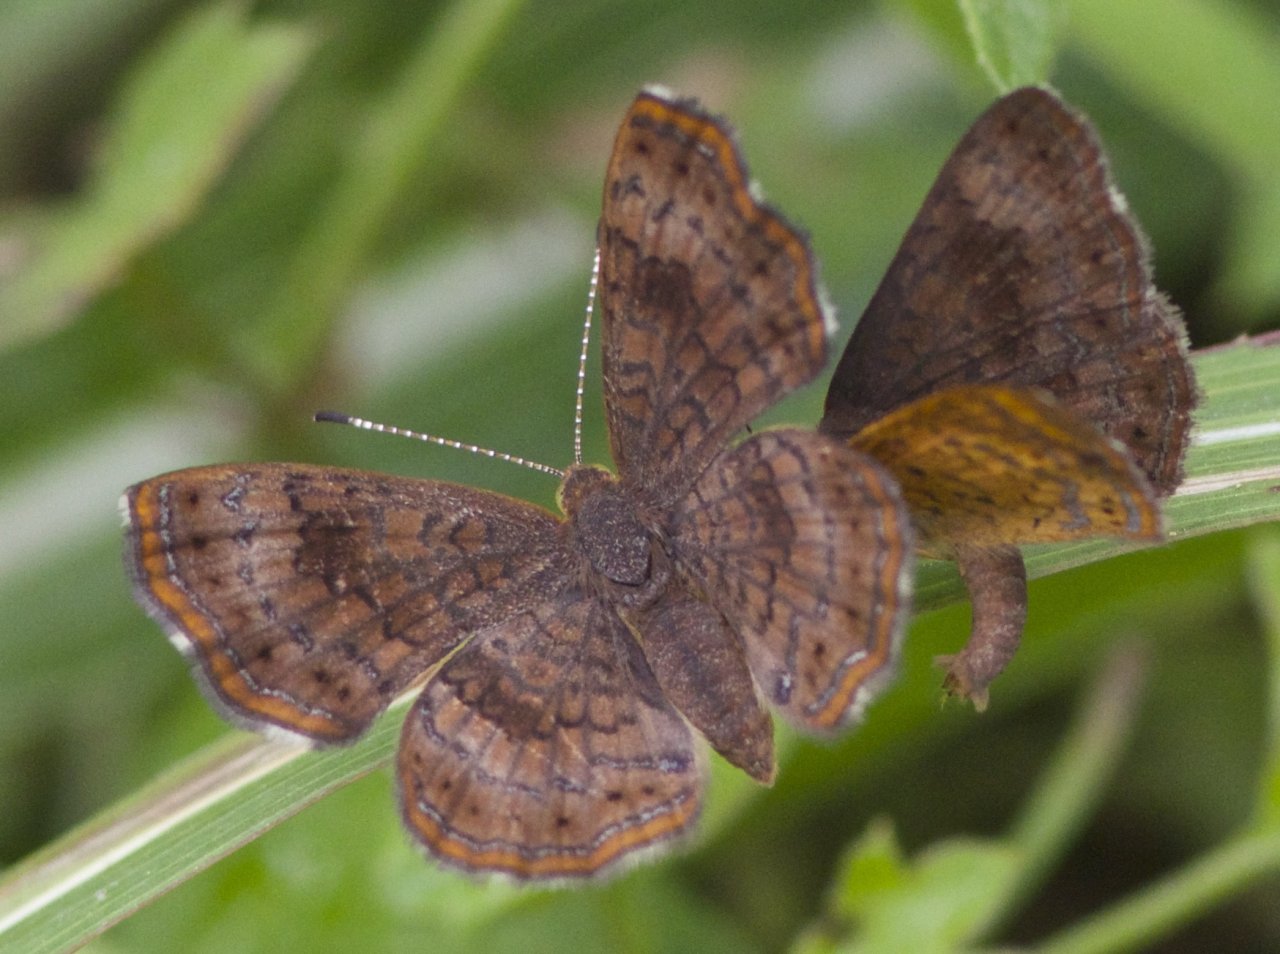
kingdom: Animalia
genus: Calephelis
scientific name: Calephelis nemesis
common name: Fatal Metalmark
